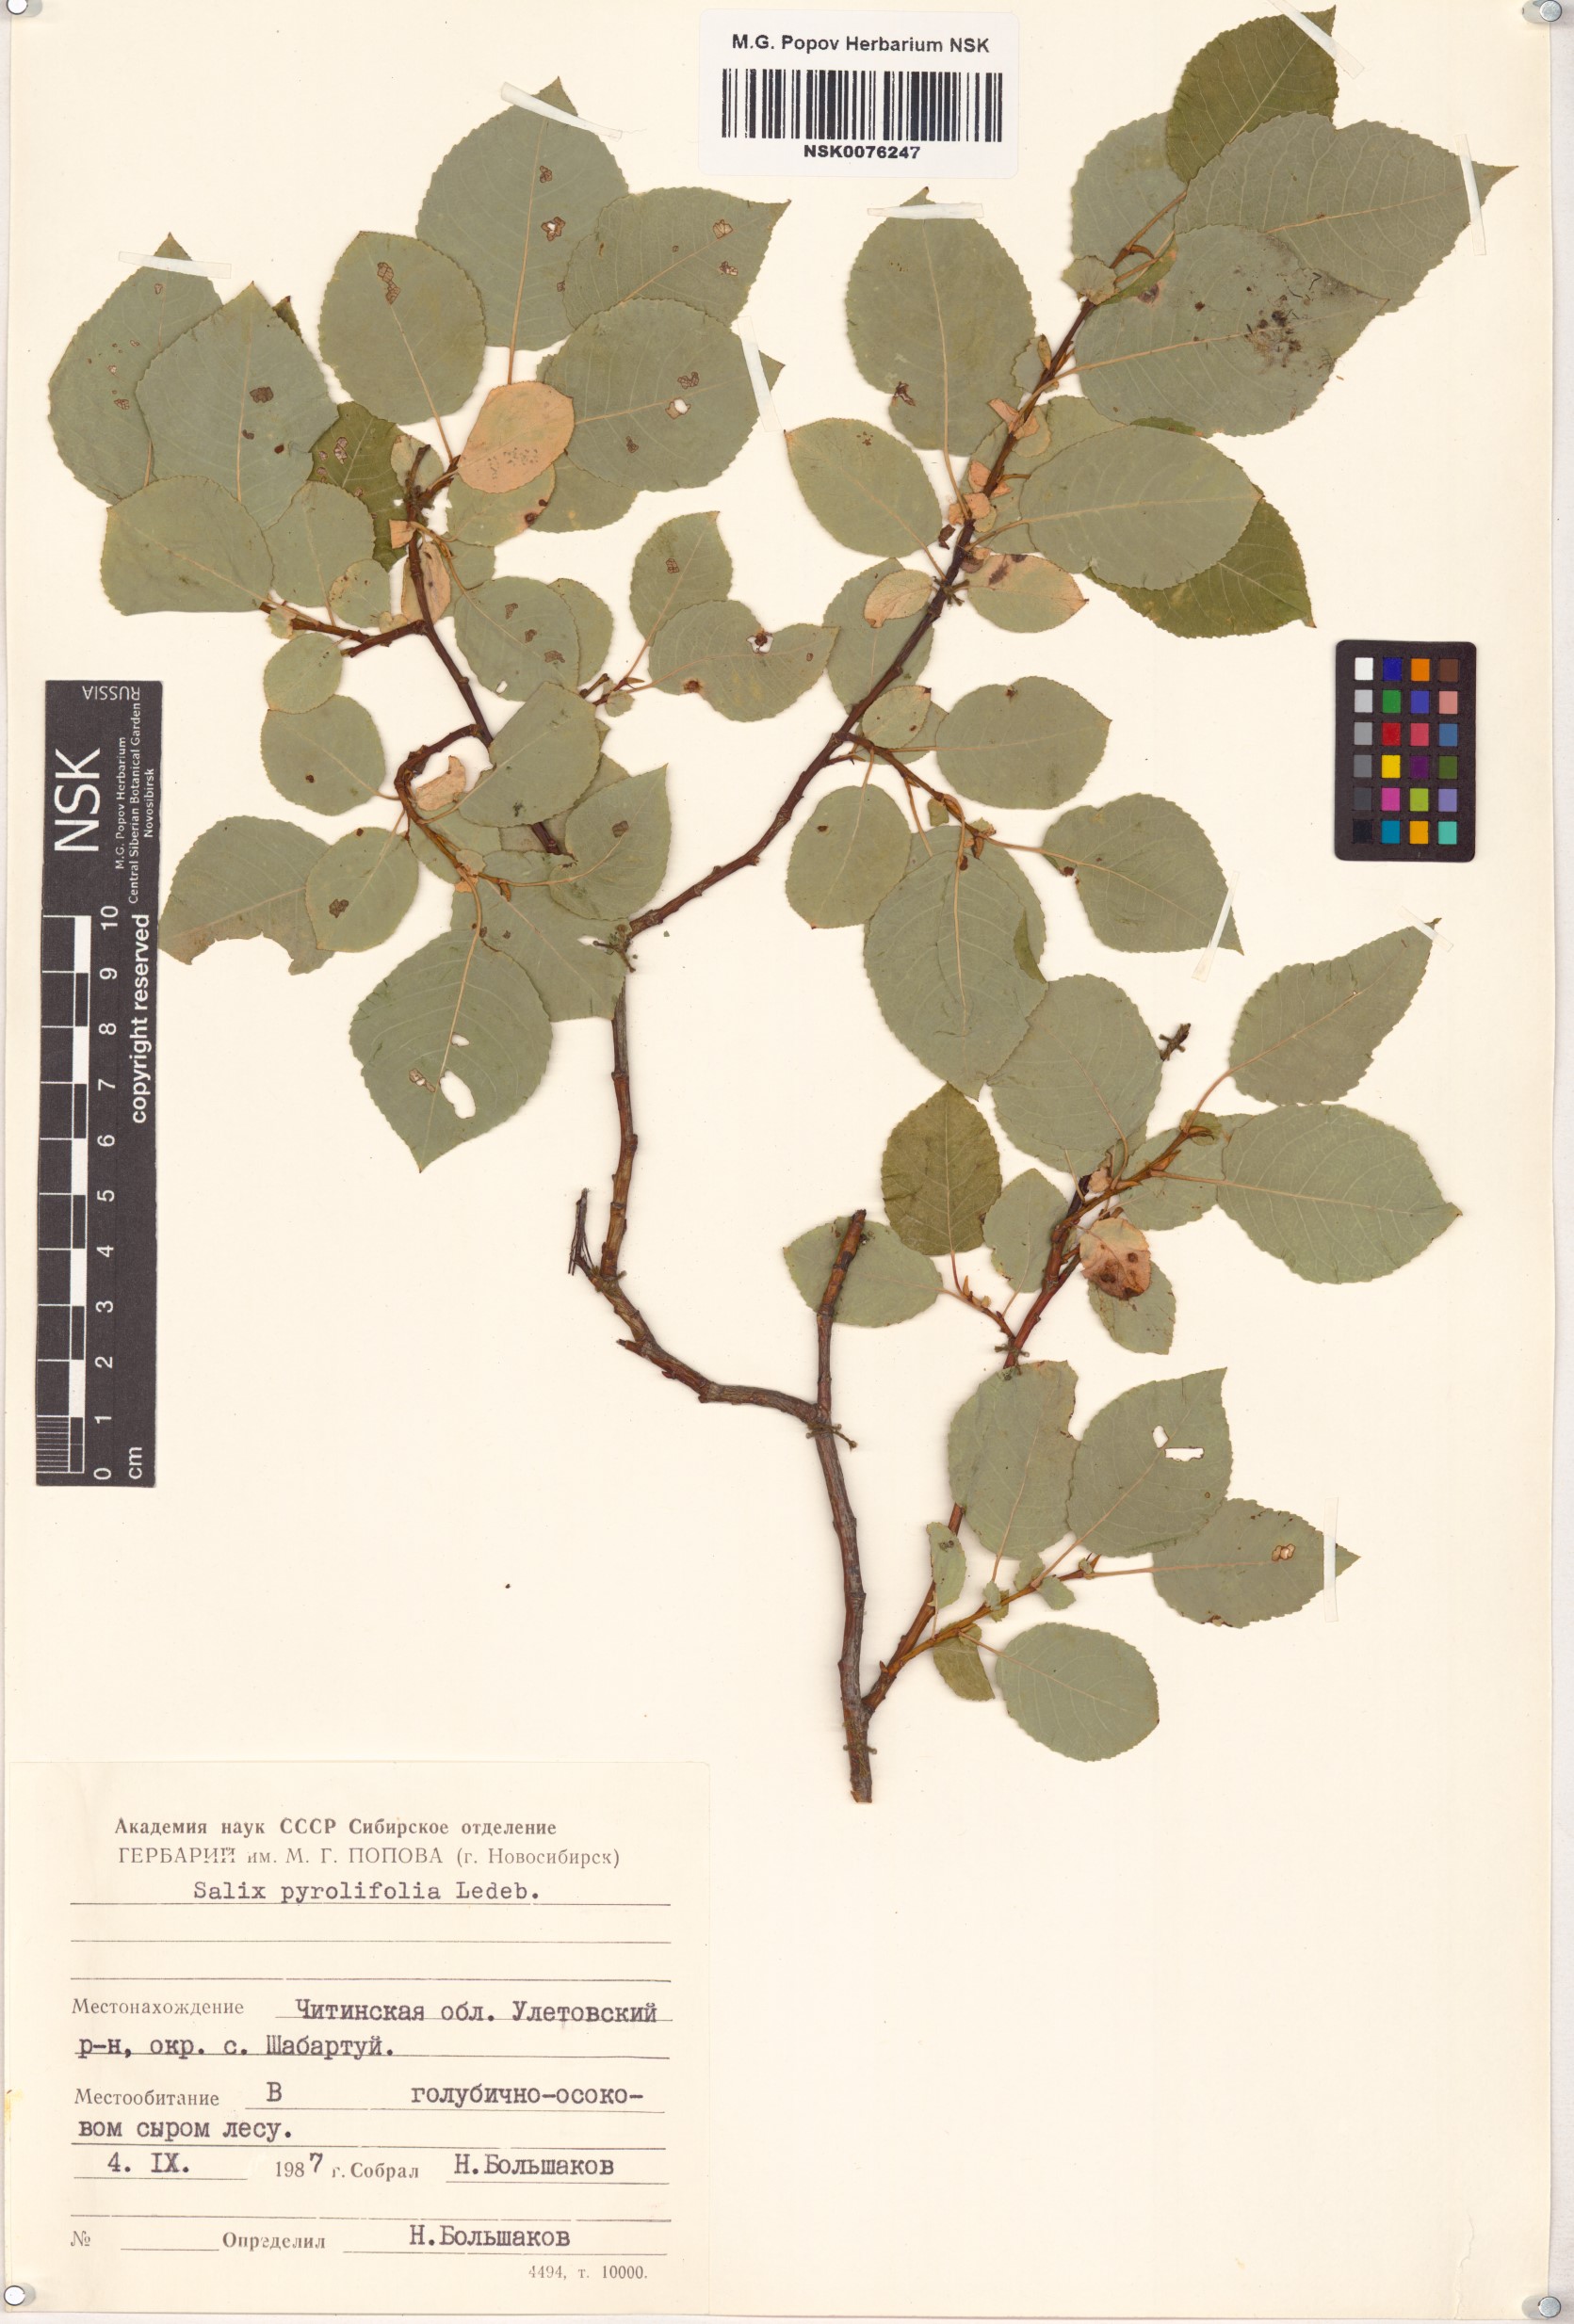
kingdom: Plantae
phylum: Tracheophyta
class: Magnoliopsida
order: Malpighiales
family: Salicaceae
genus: Salix
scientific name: Salix pyrolifolia
